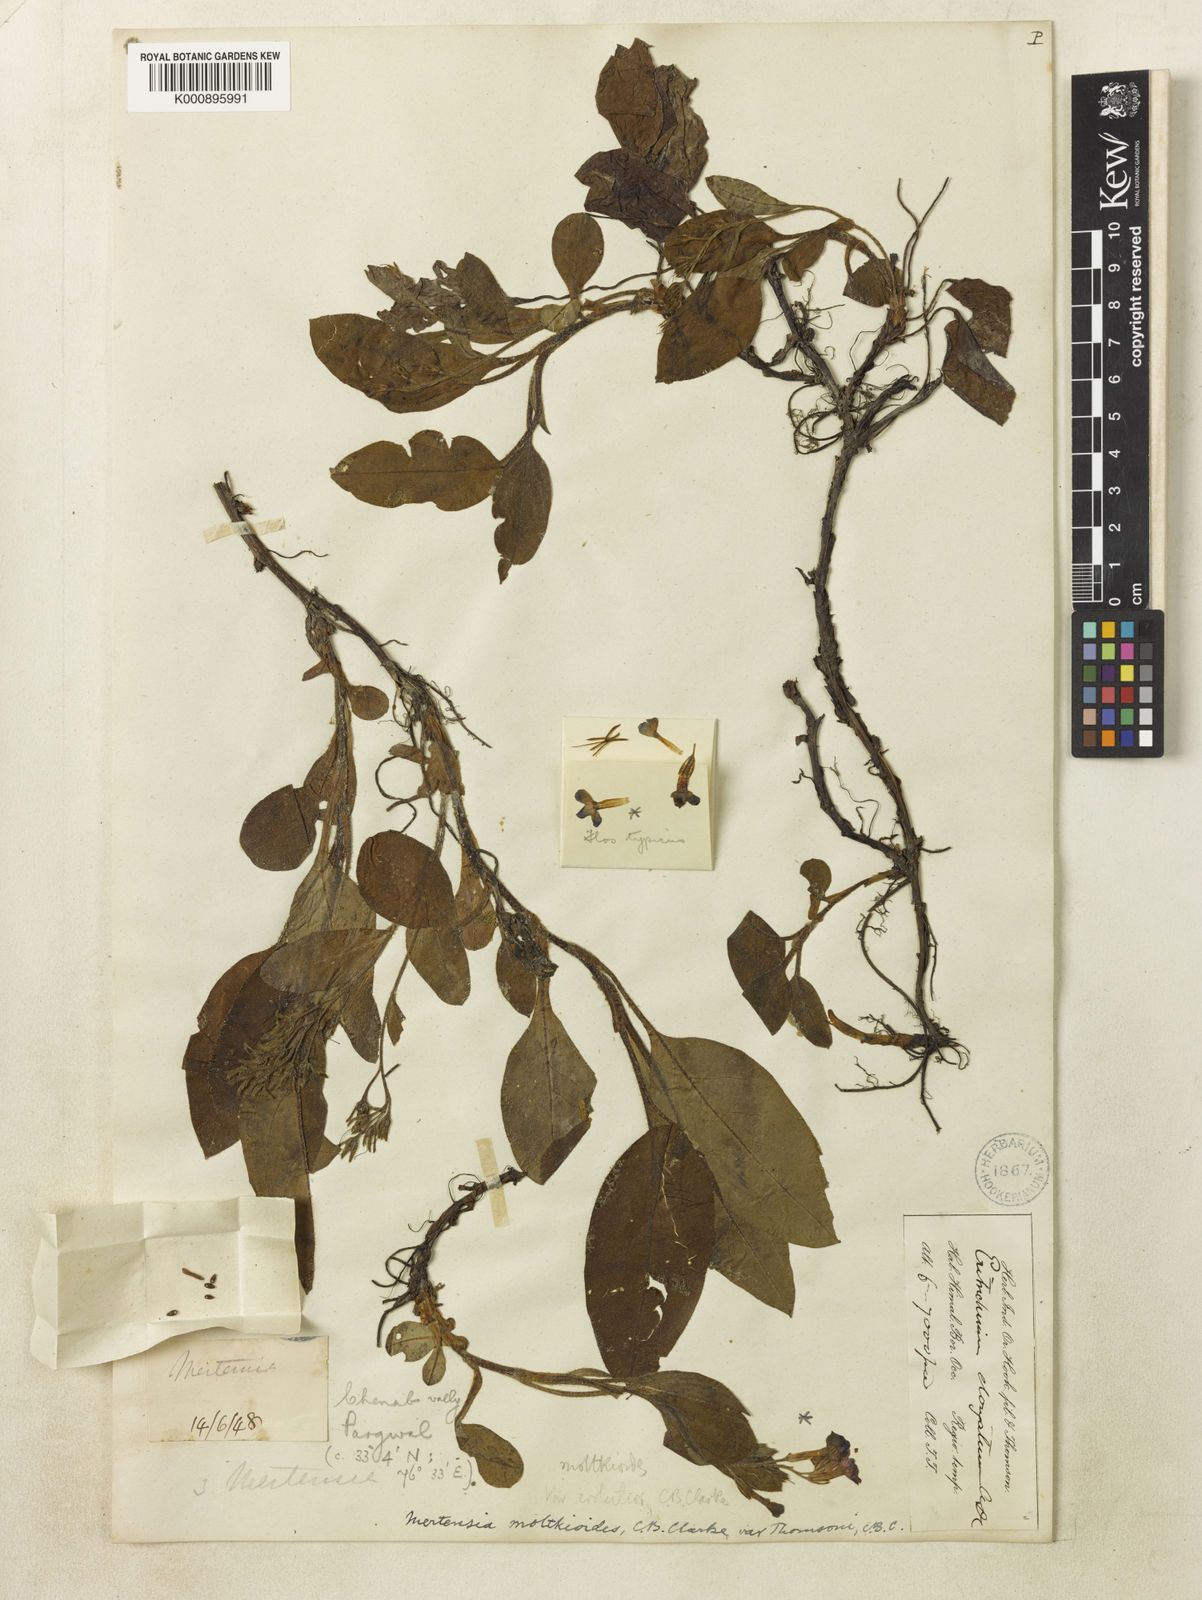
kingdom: Plantae
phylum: Tracheophyta
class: Magnoliopsida
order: Boraginales
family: Boraginaceae
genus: Decalepidanthus
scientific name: Decalepidanthus moltkioides
